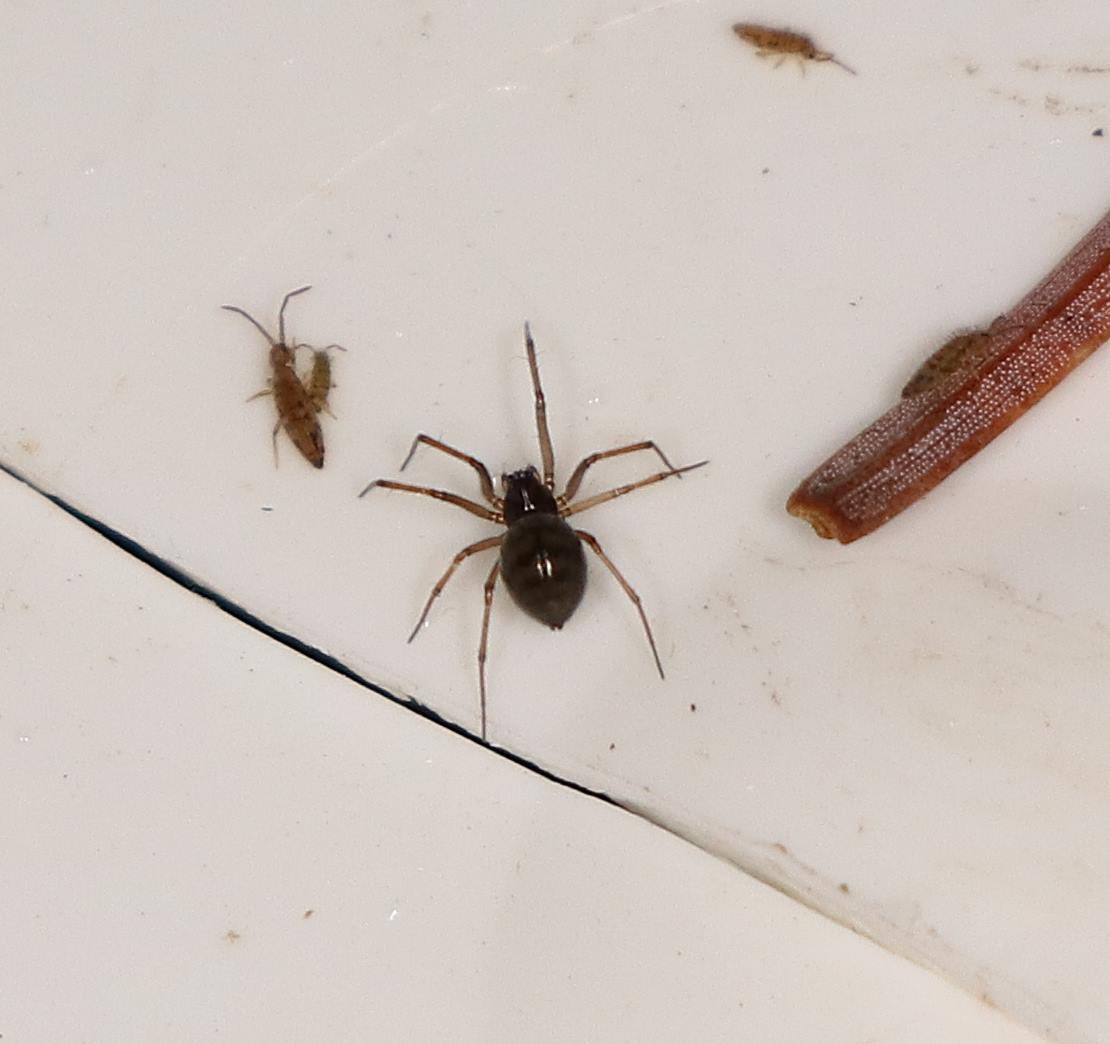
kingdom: Animalia
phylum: Arthropoda
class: Arachnida
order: Araneae
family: Linyphiidae
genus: Bathyphantes
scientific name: Bathyphantes
